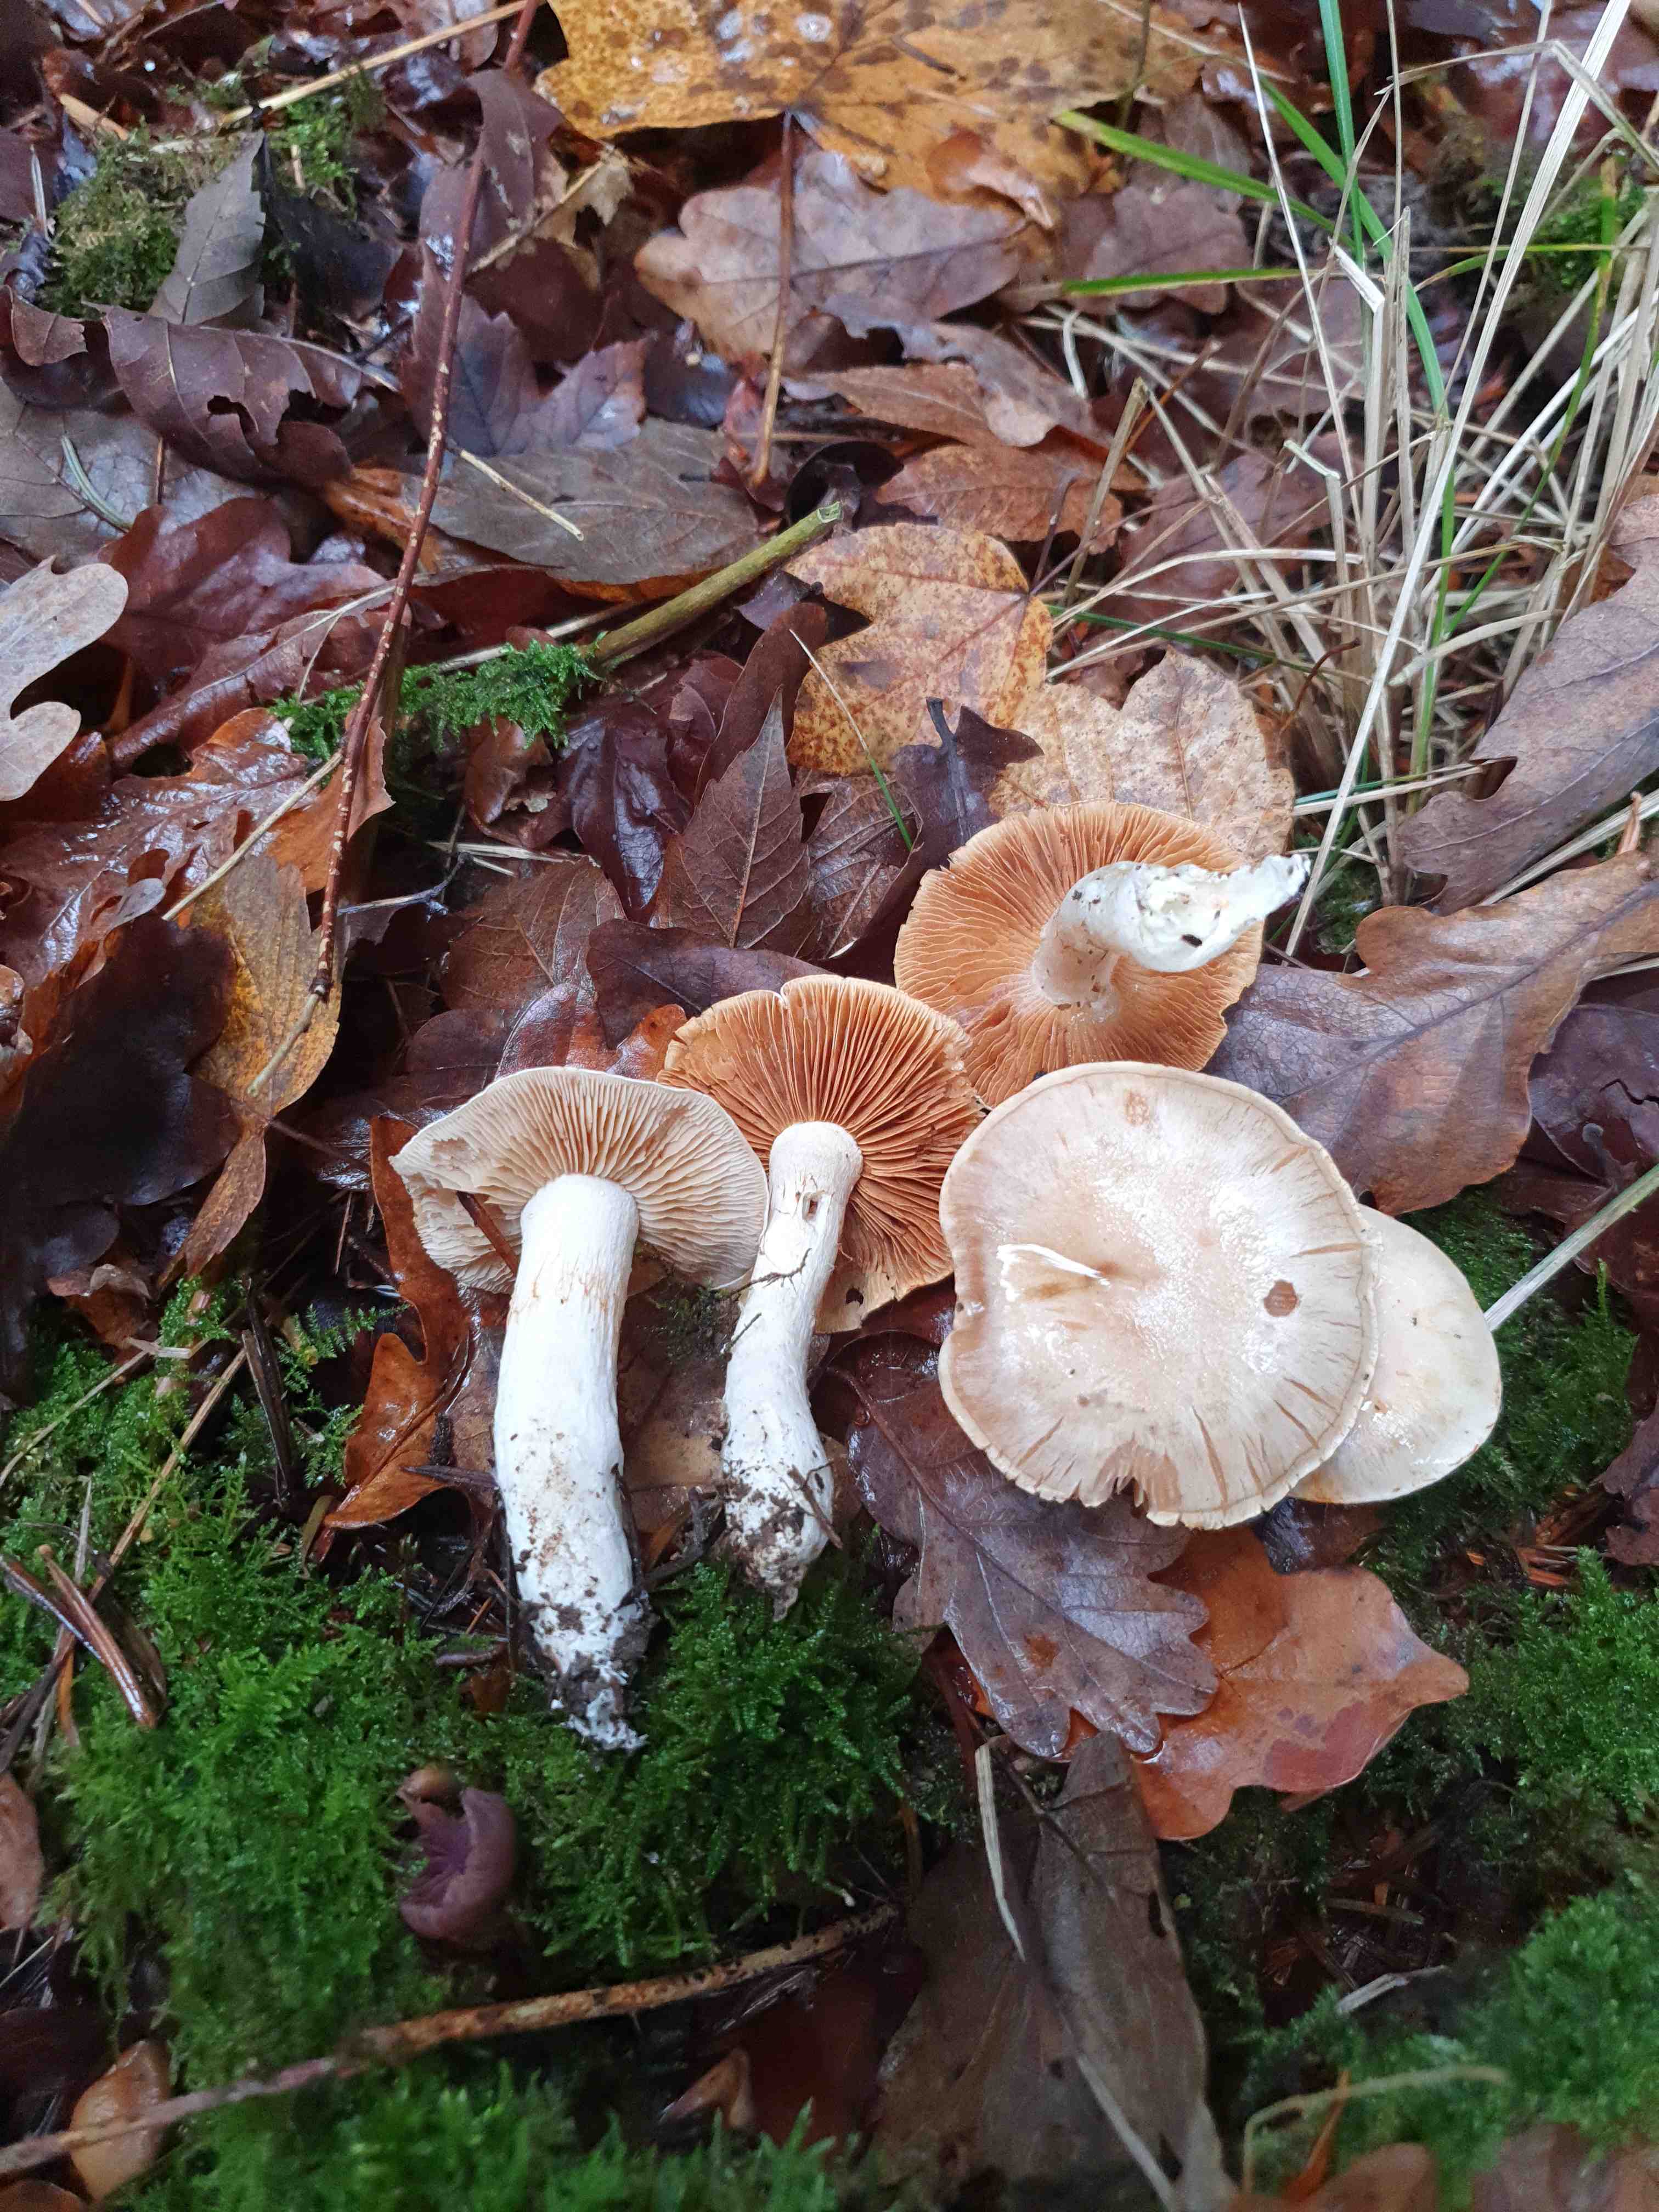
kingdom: Fungi
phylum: Basidiomycota
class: Agaricomycetes
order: Agaricales
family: Cortinariaceae
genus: Thaxterogaster
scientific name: Thaxterogaster leucoluteolus
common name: isabella slørhat
